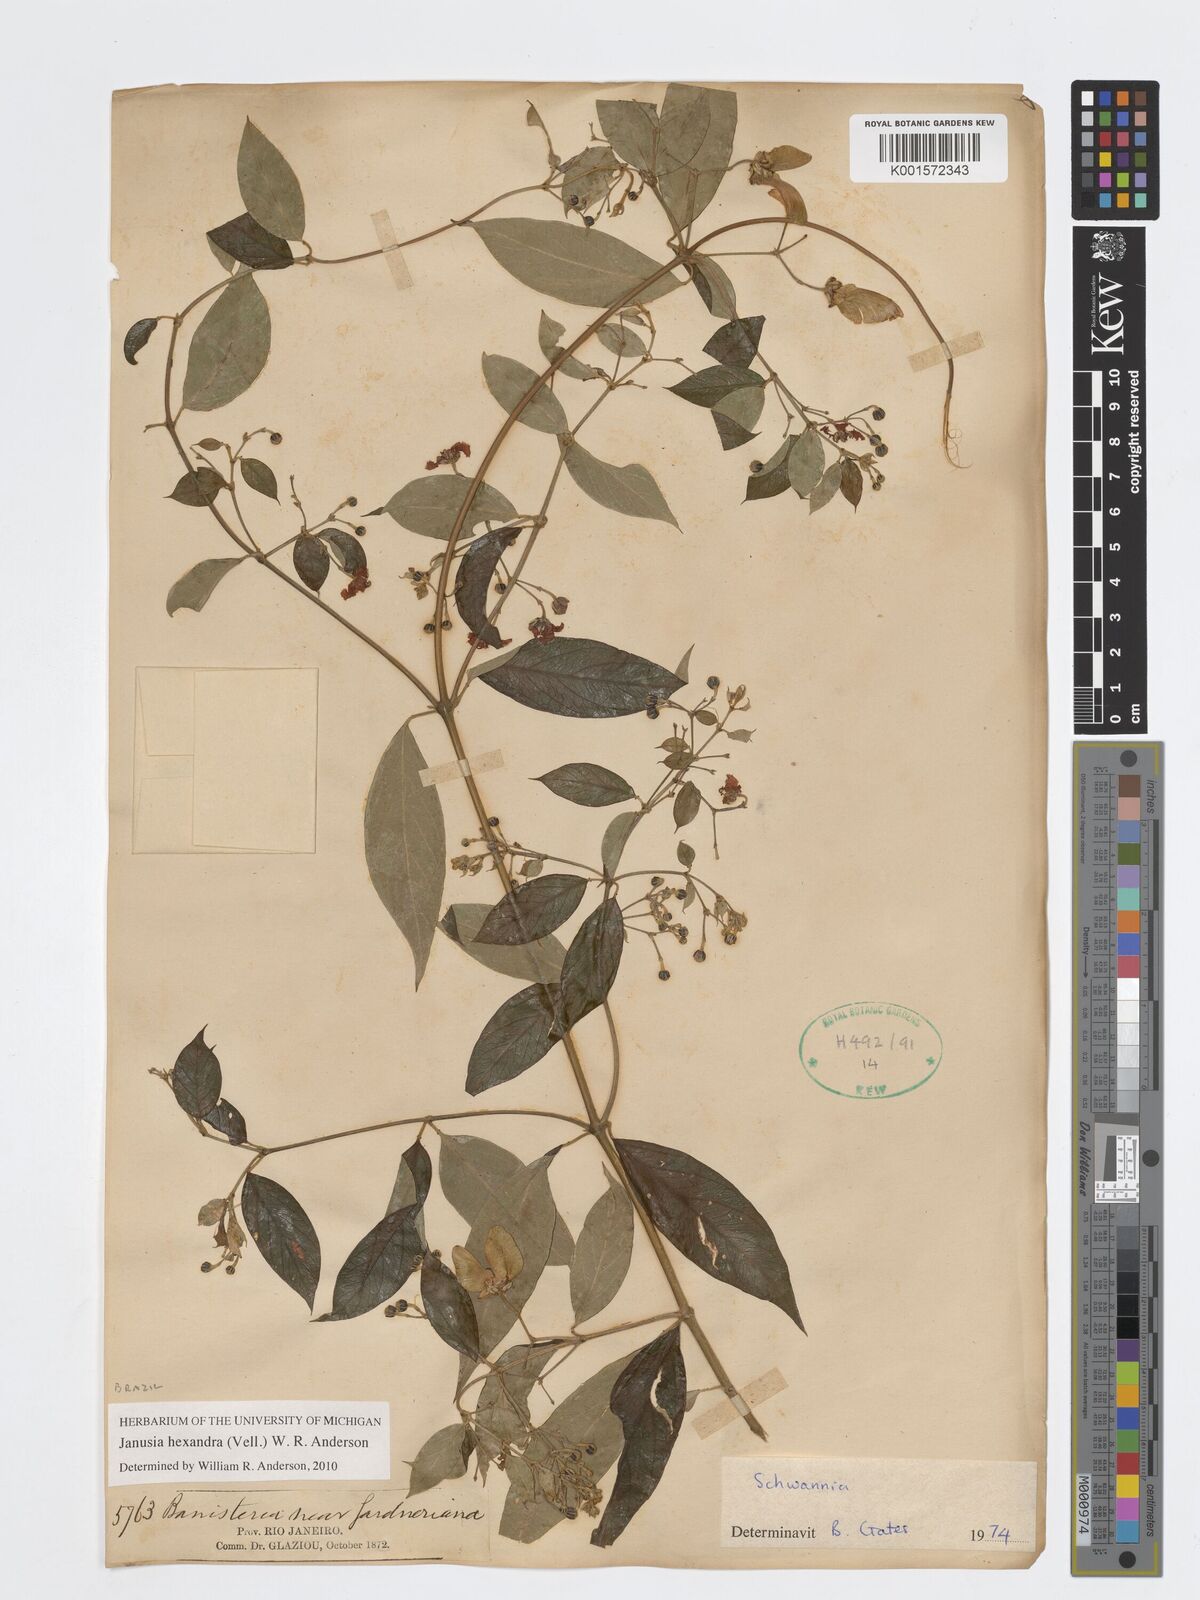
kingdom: Plantae
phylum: Tracheophyta
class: Magnoliopsida
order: Malpighiales
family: Malpighiaceae
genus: Janusia
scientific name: Janusia hexandra
